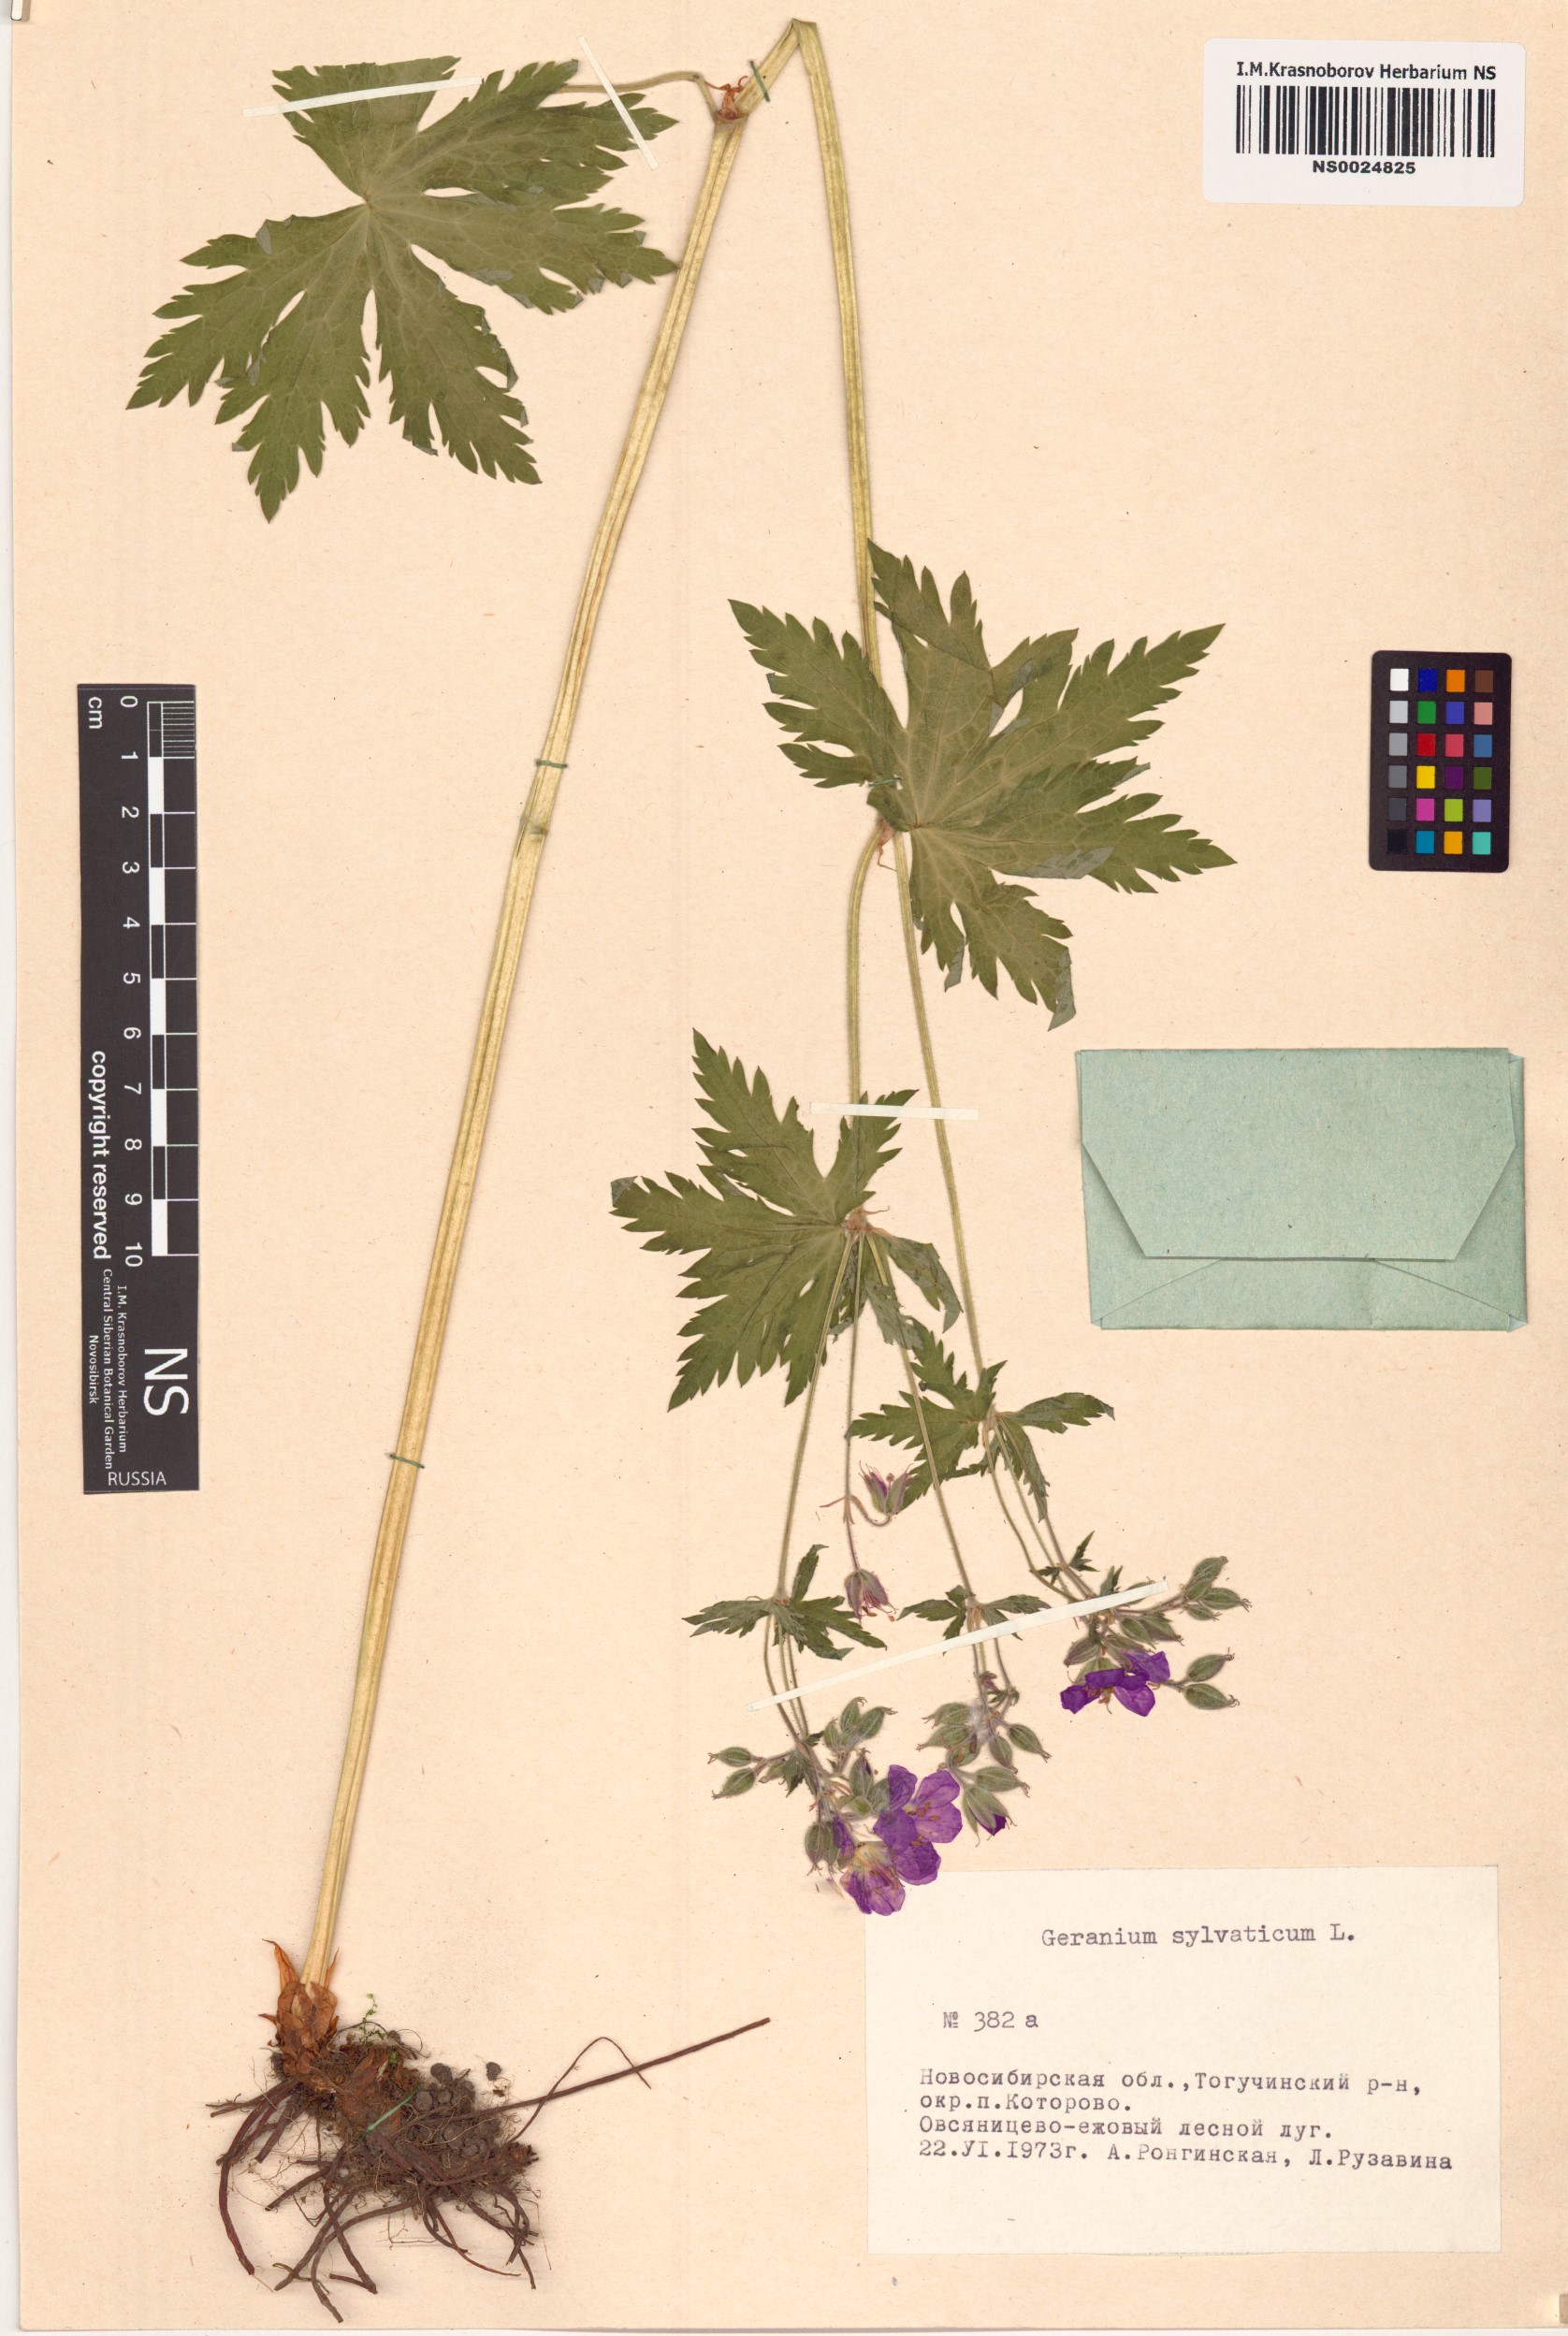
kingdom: Plantae
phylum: Tracheophyta
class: Magnoliopsida
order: Geraniales
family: Geraniaceae
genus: Geranium
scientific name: Geranium sylvaticum
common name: Wood crane's-bill
